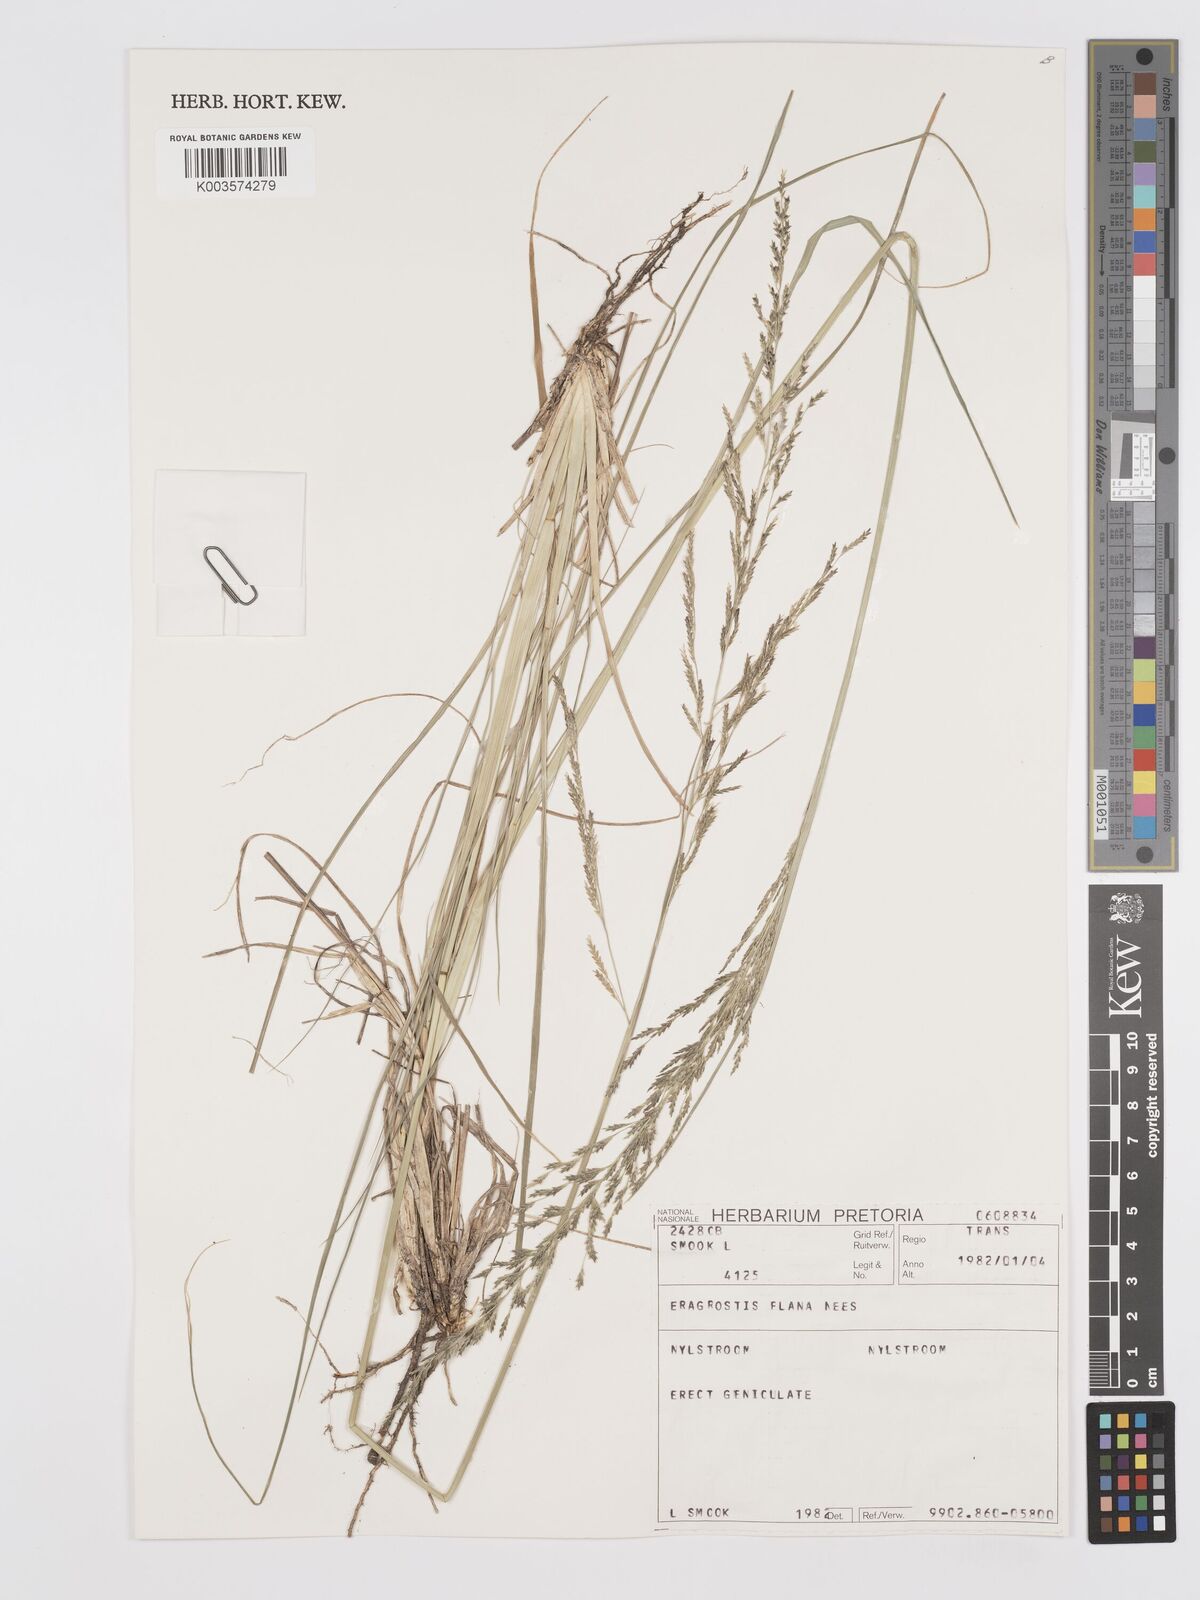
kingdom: Plantae
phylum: Tracheophyta
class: Liliopsida
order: Poales
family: Poaceae
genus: Eragrostis
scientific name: Eragrostis plana
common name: South african lovegrass
